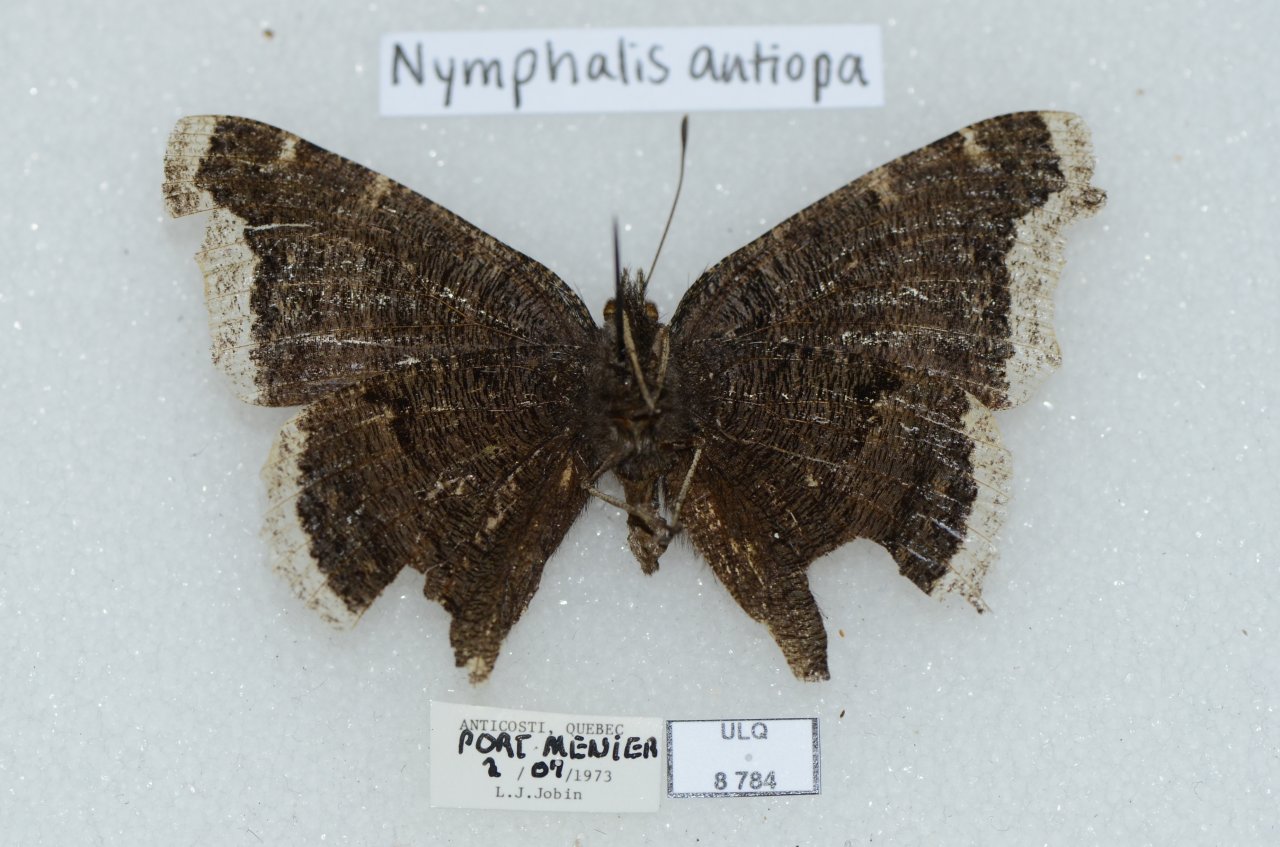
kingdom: Animalia
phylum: Arthropoda
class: Insecta
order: Lepidoptera
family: Nymphalidae
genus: Nymphalis
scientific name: Nymphalis antiopa
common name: Mourning Cloak
